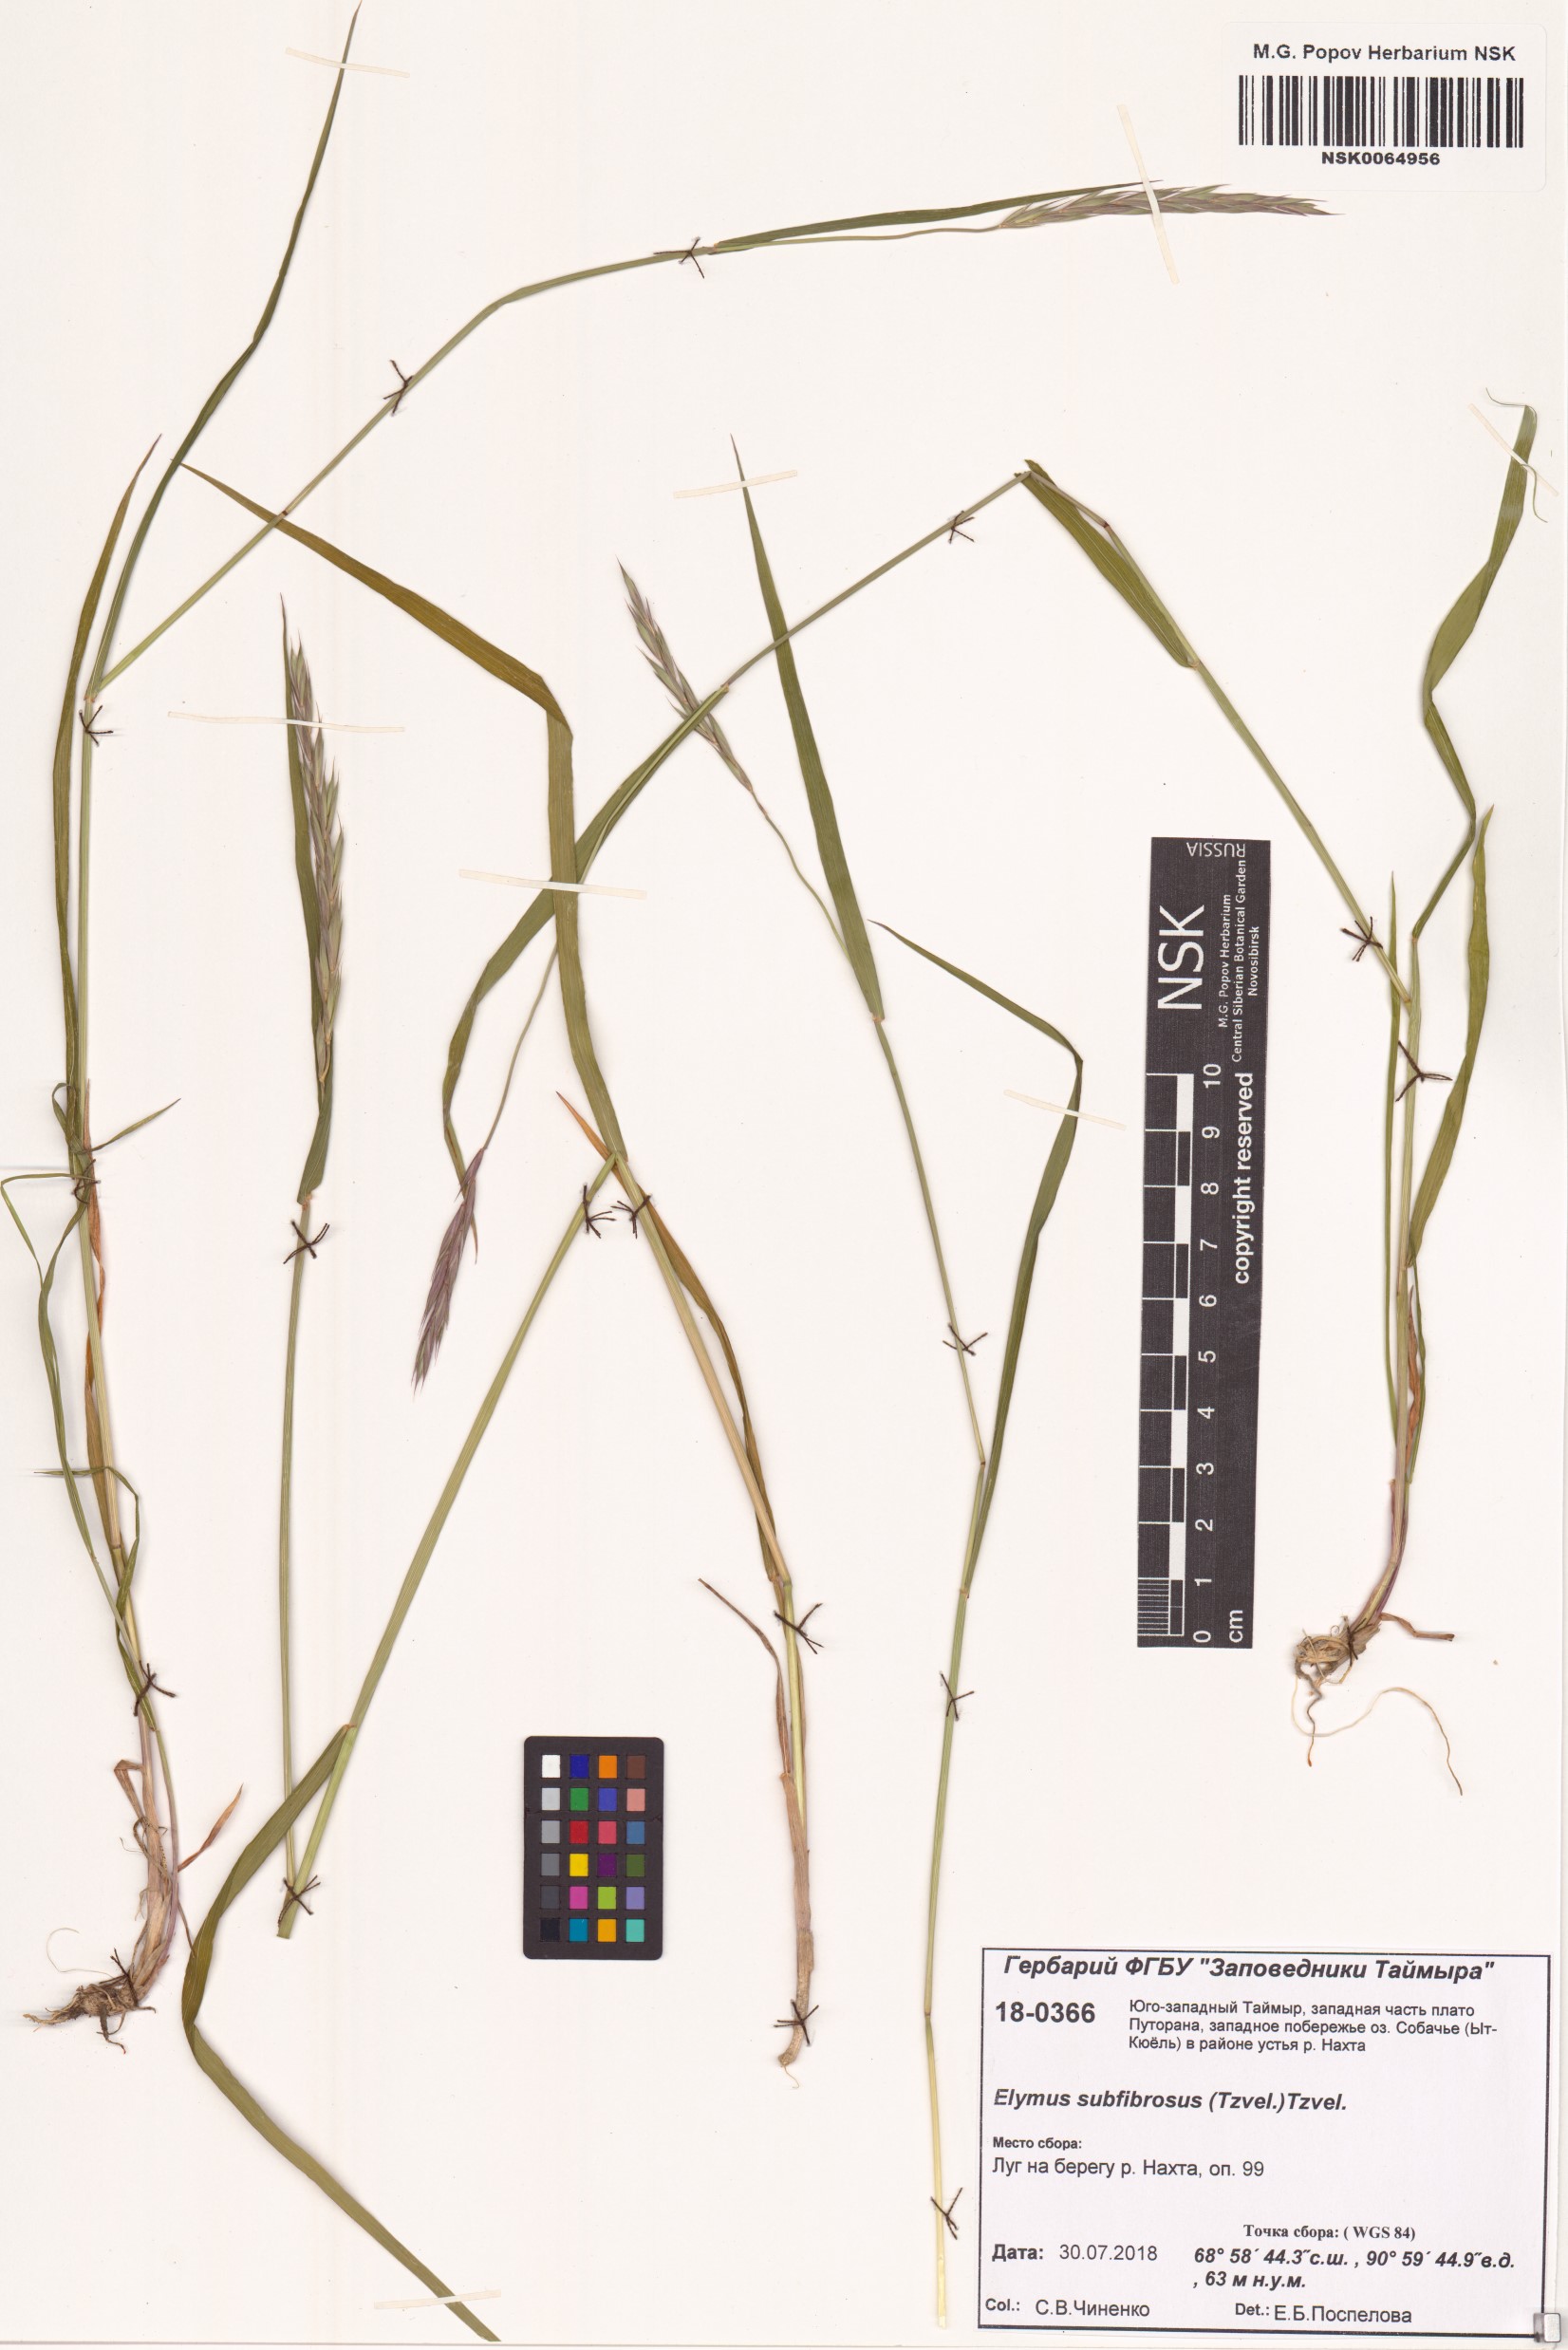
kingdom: Plantae
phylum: Tracheophyta
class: Liliopsida
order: Poales
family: Poaceae
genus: Elymus
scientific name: Elymus fibrosus
